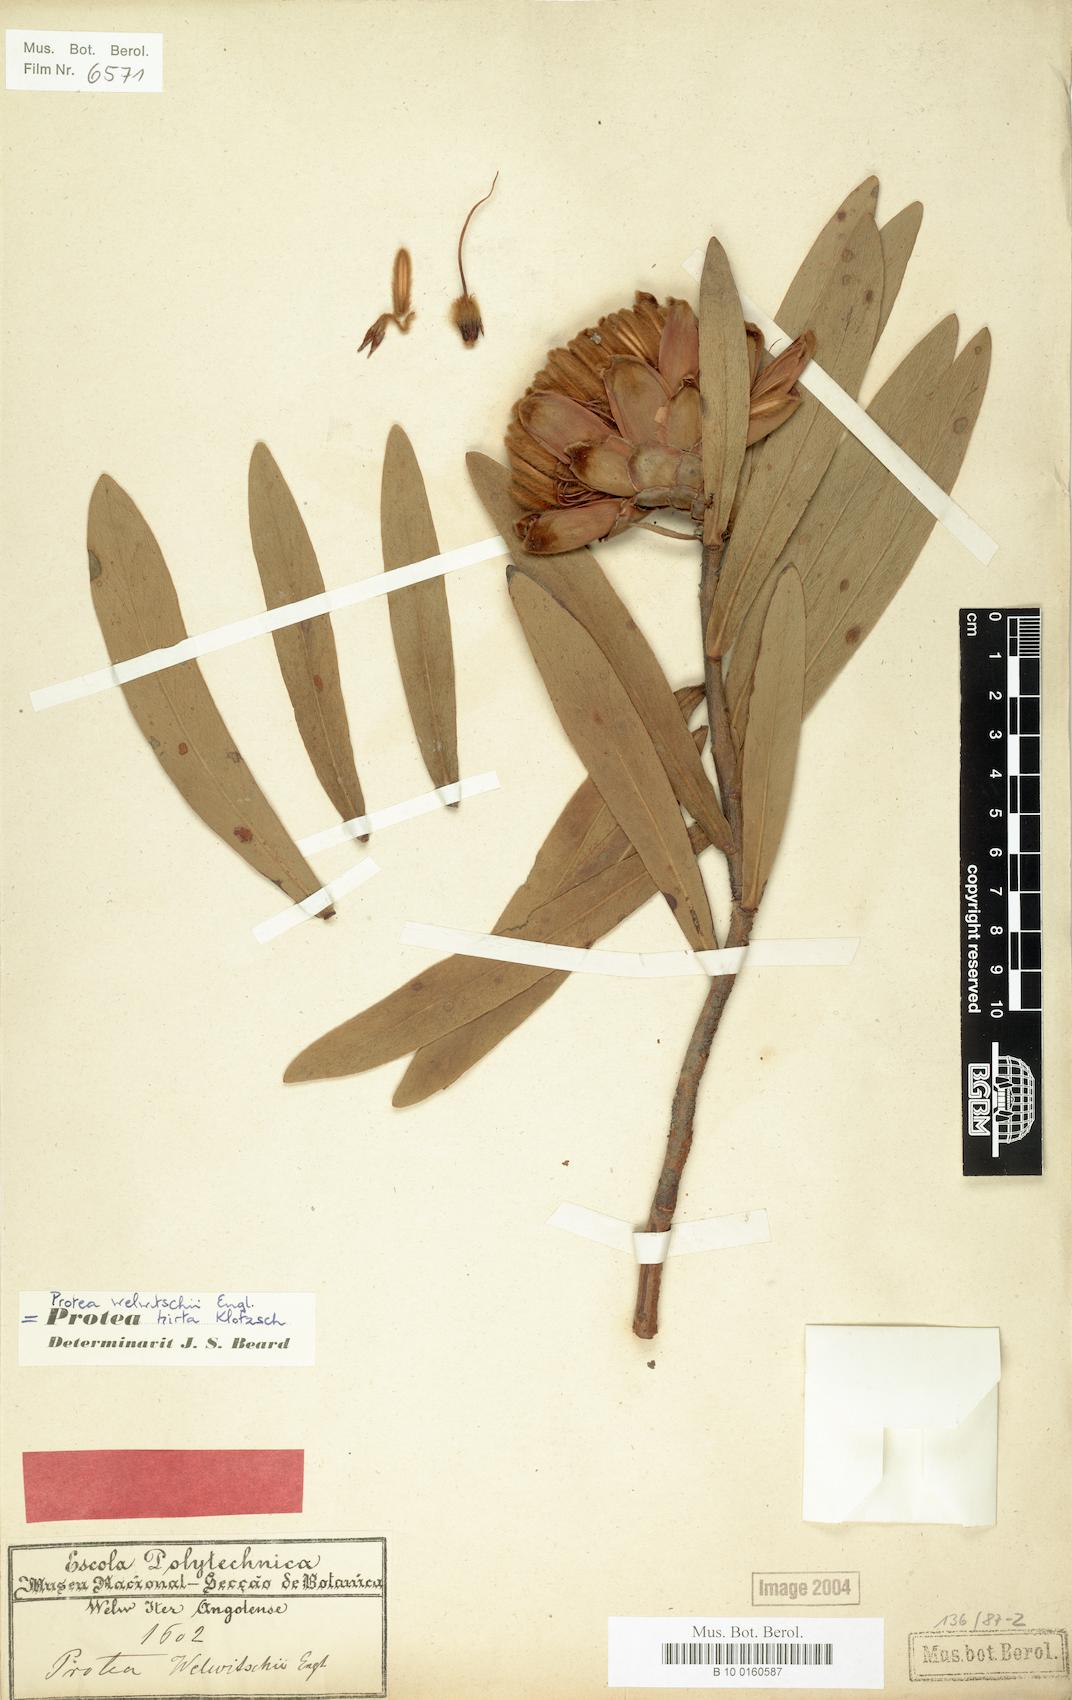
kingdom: Plantae
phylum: Tracheophyta
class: Magnoliopsida
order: Proteales
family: Proteaceae
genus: Protea
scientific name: Protea welwitschii
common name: Cluster-head protea
